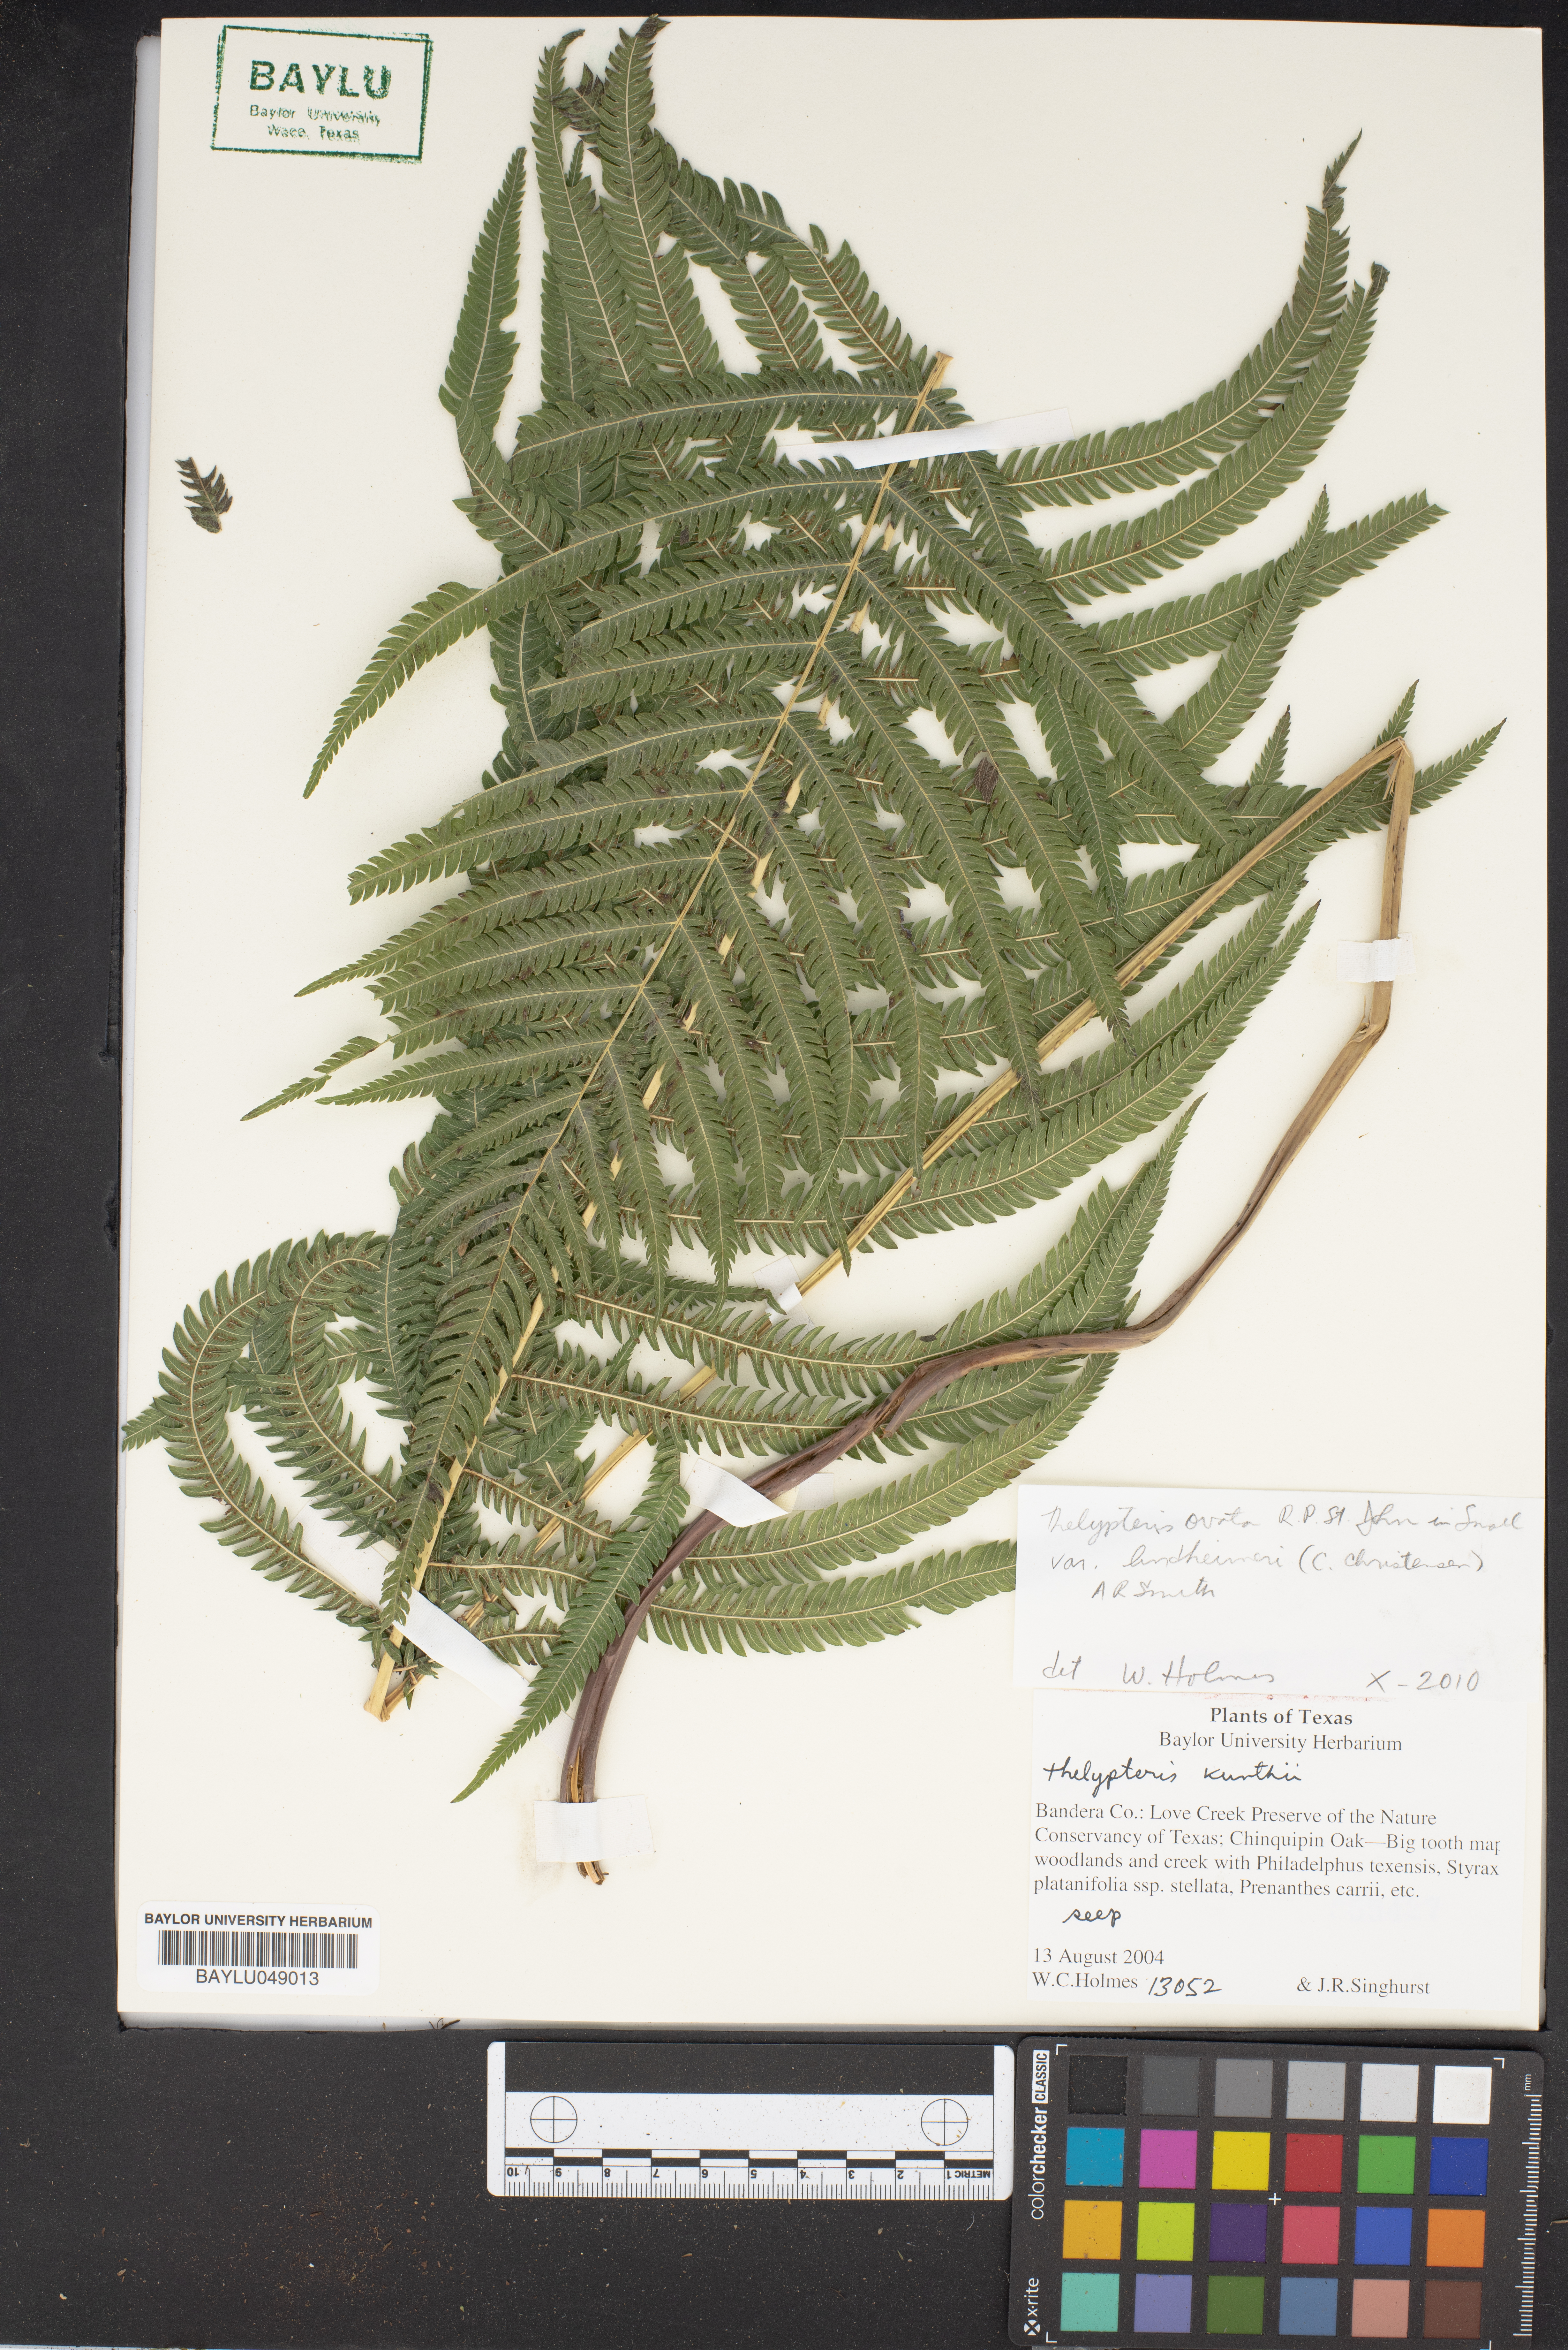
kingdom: Plantae
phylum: Tracheophyta
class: Polypodiopsida
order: Polypodiales
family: Thelypteridaceae
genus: Pelazoneuron
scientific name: Pelazoneuron kunthii
